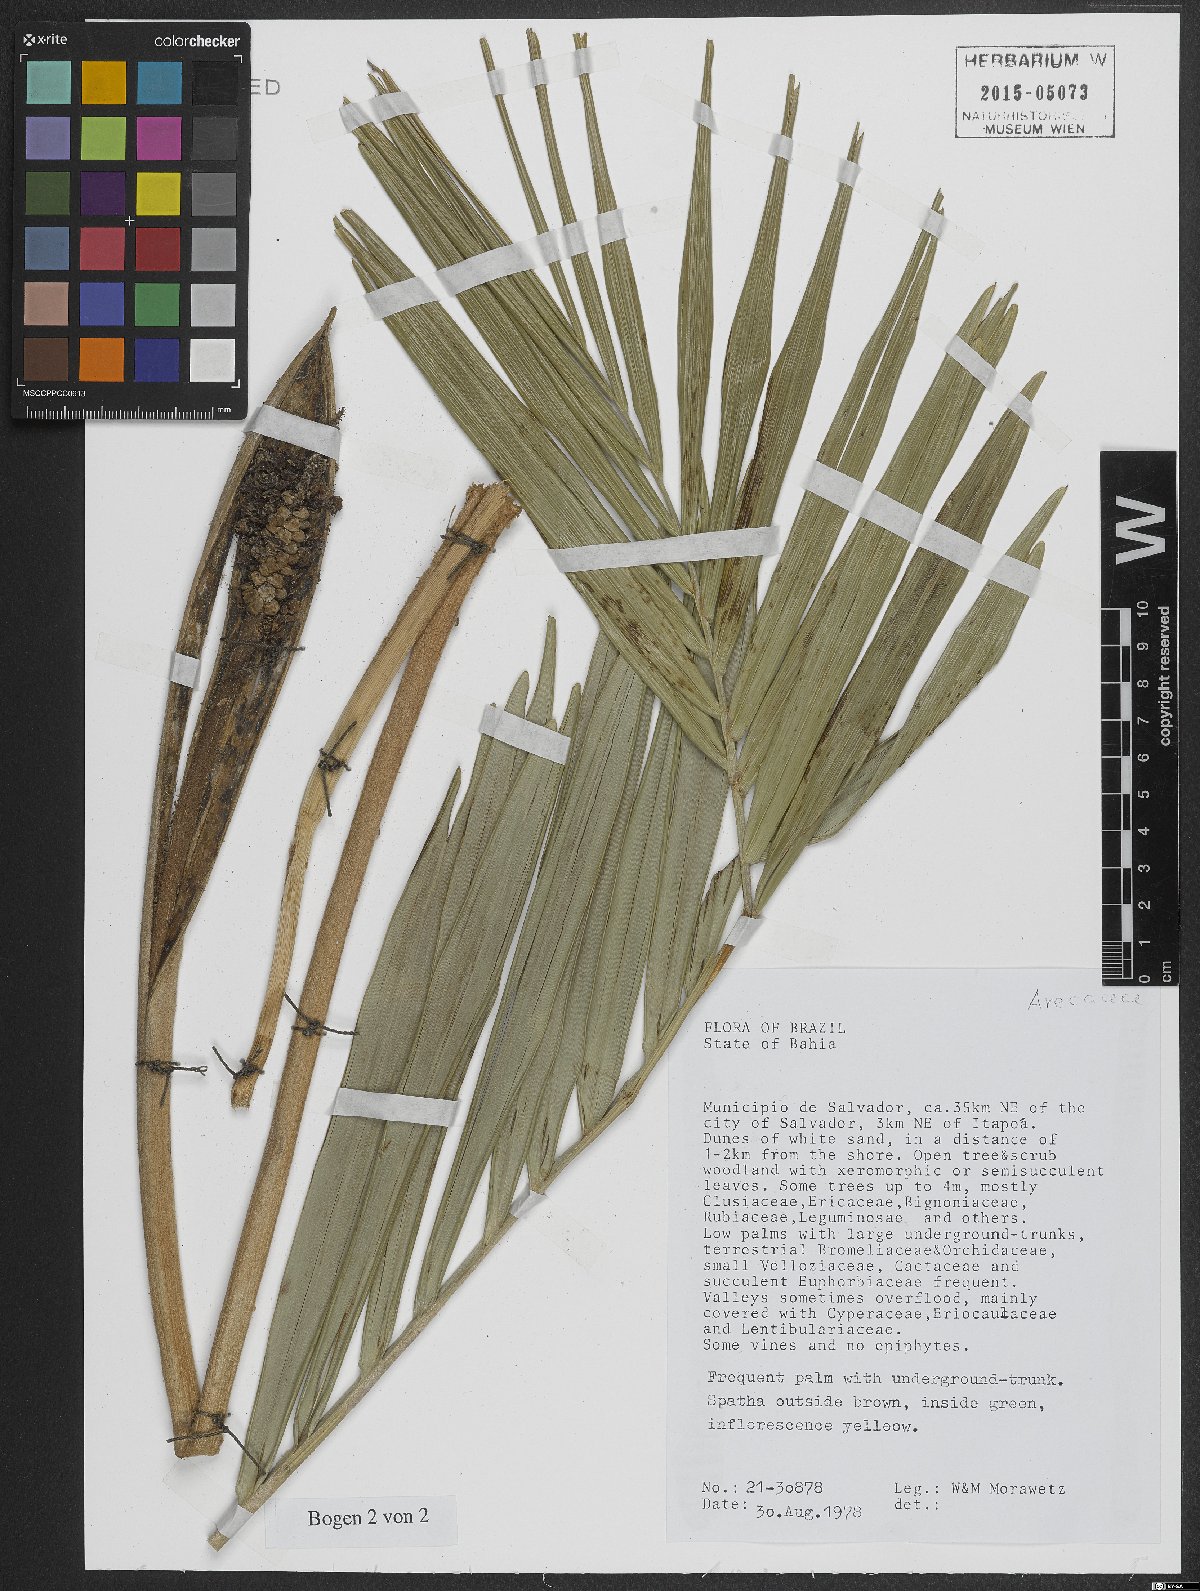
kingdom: Plantae
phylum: Tracheophyta
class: Liliopsida
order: Arecales
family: Arecaceae
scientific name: Arecaceae
